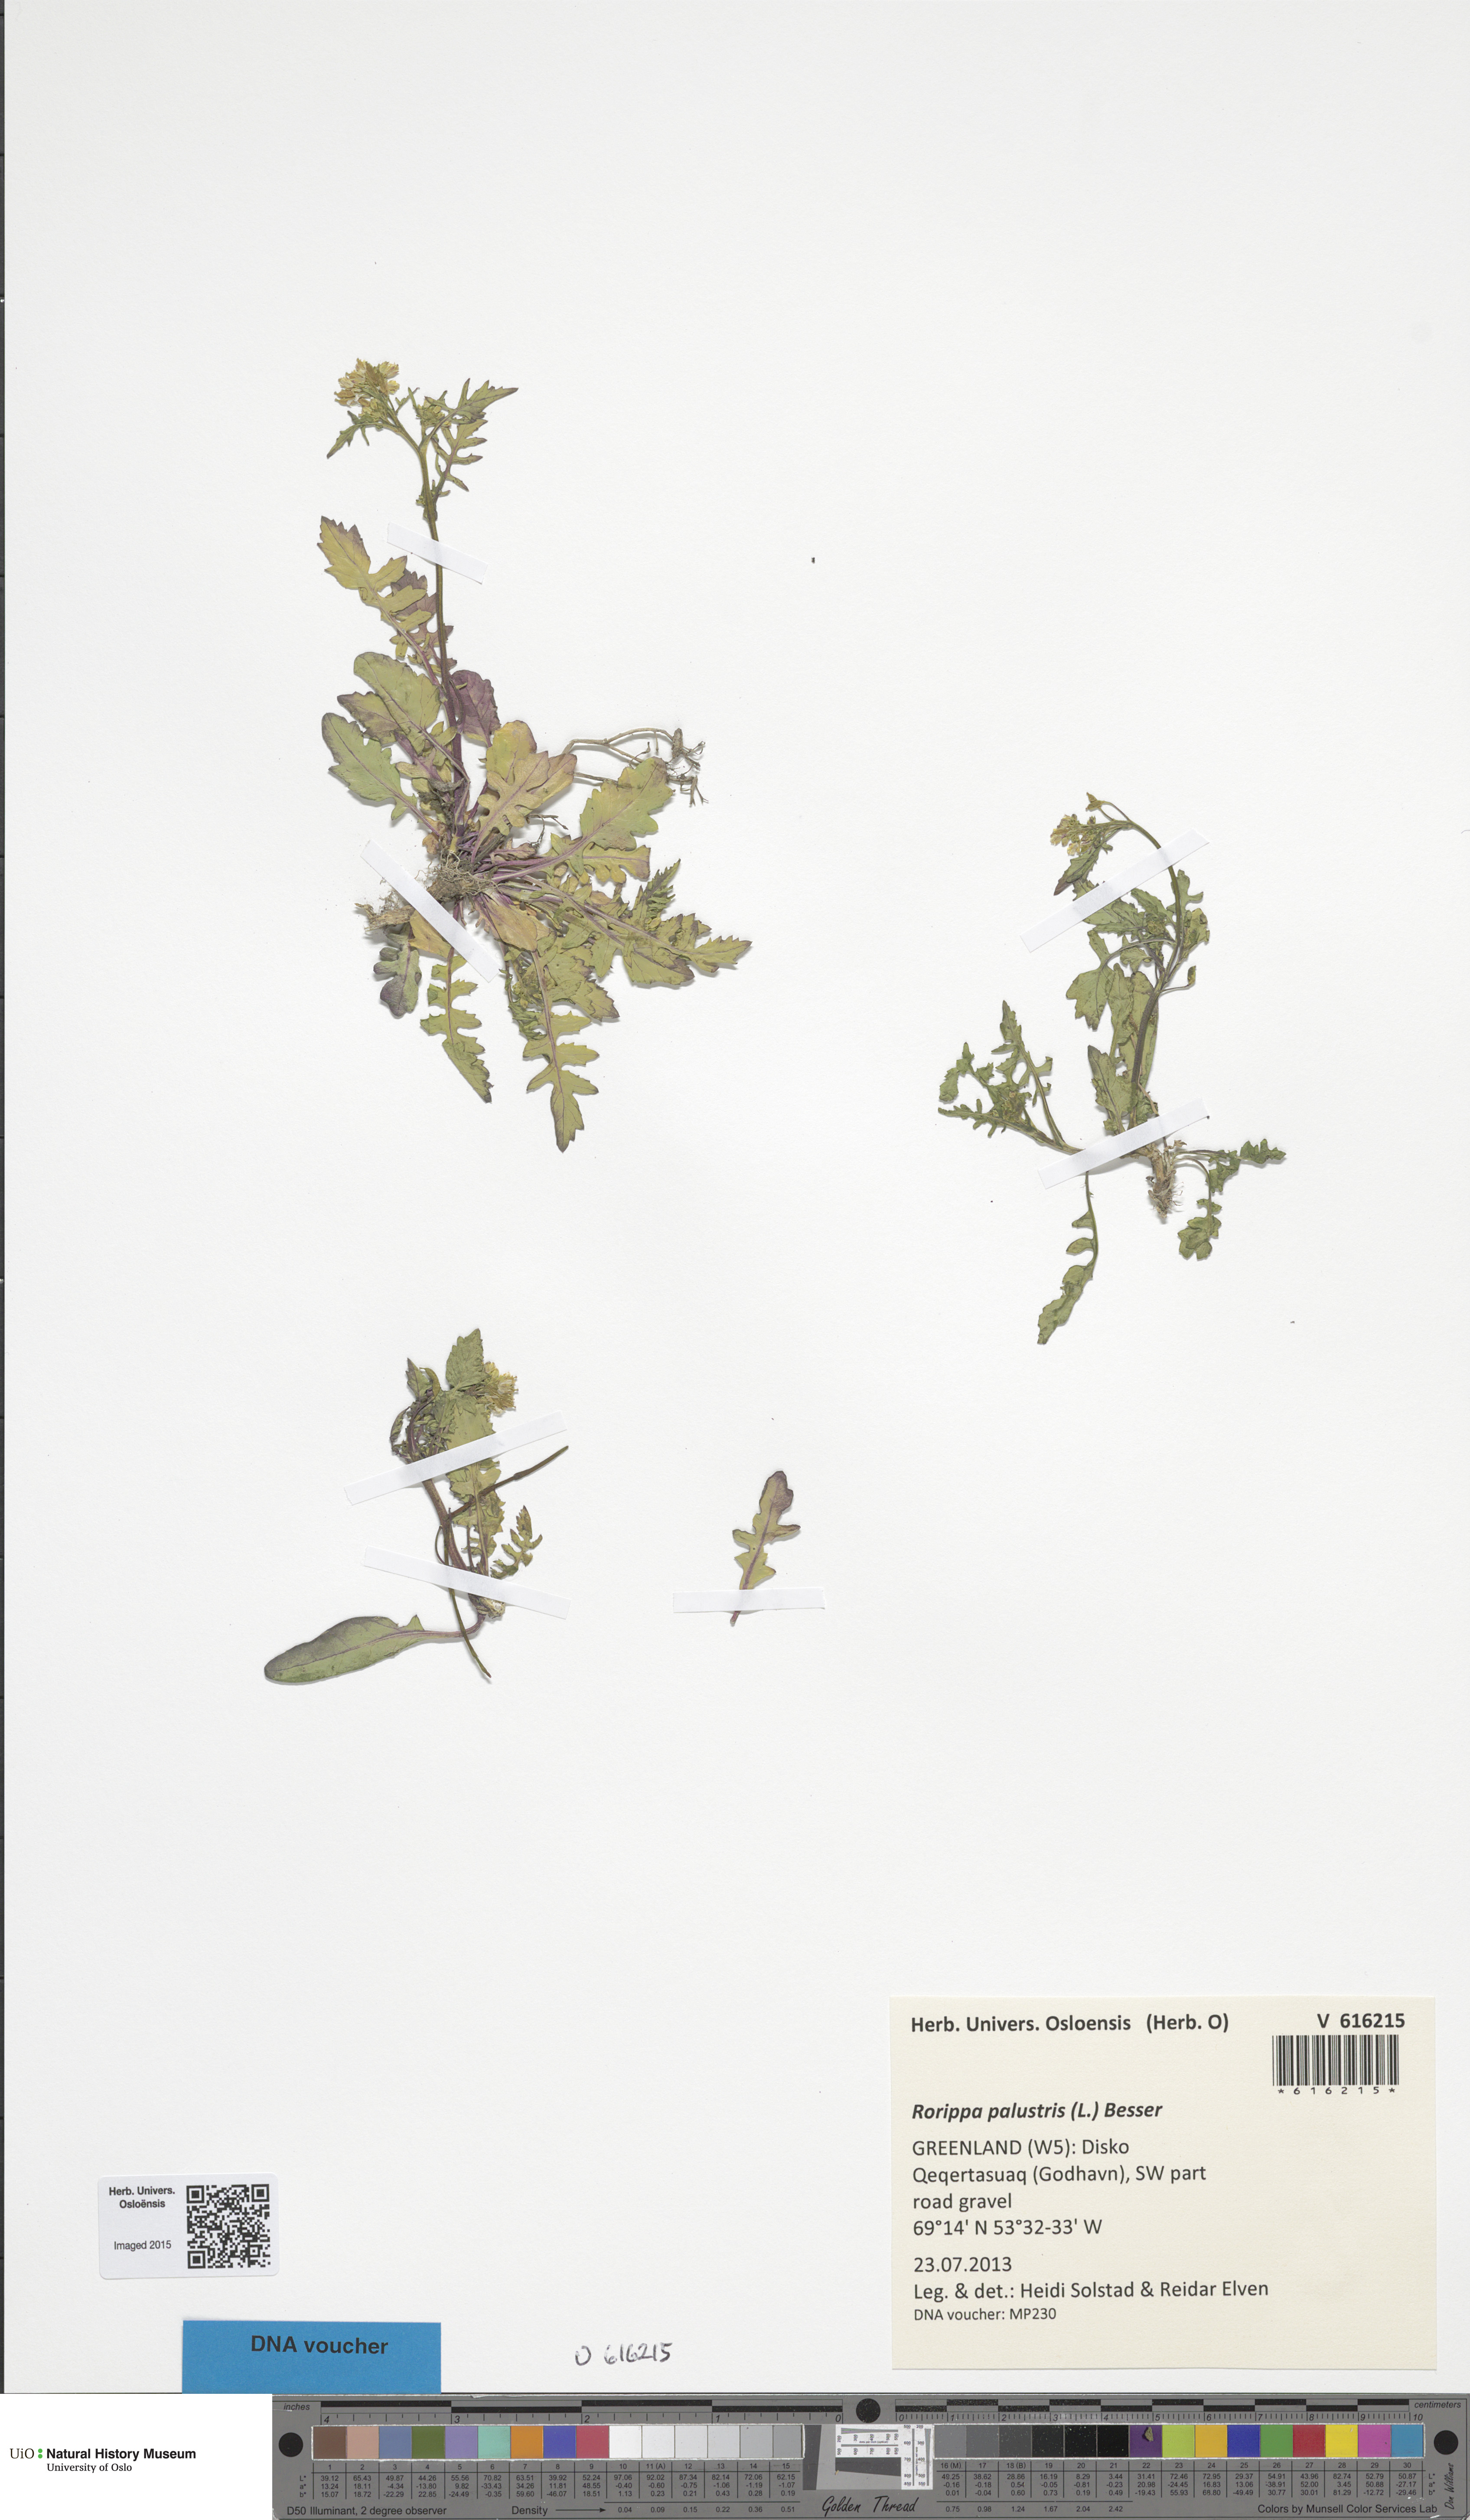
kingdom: Plantae
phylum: Tracheophyta
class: Magnoliopsida
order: Brassicales
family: Brassicaceae
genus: Rorippa
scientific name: Rorippa palustris
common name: Marsh yellow-cress
